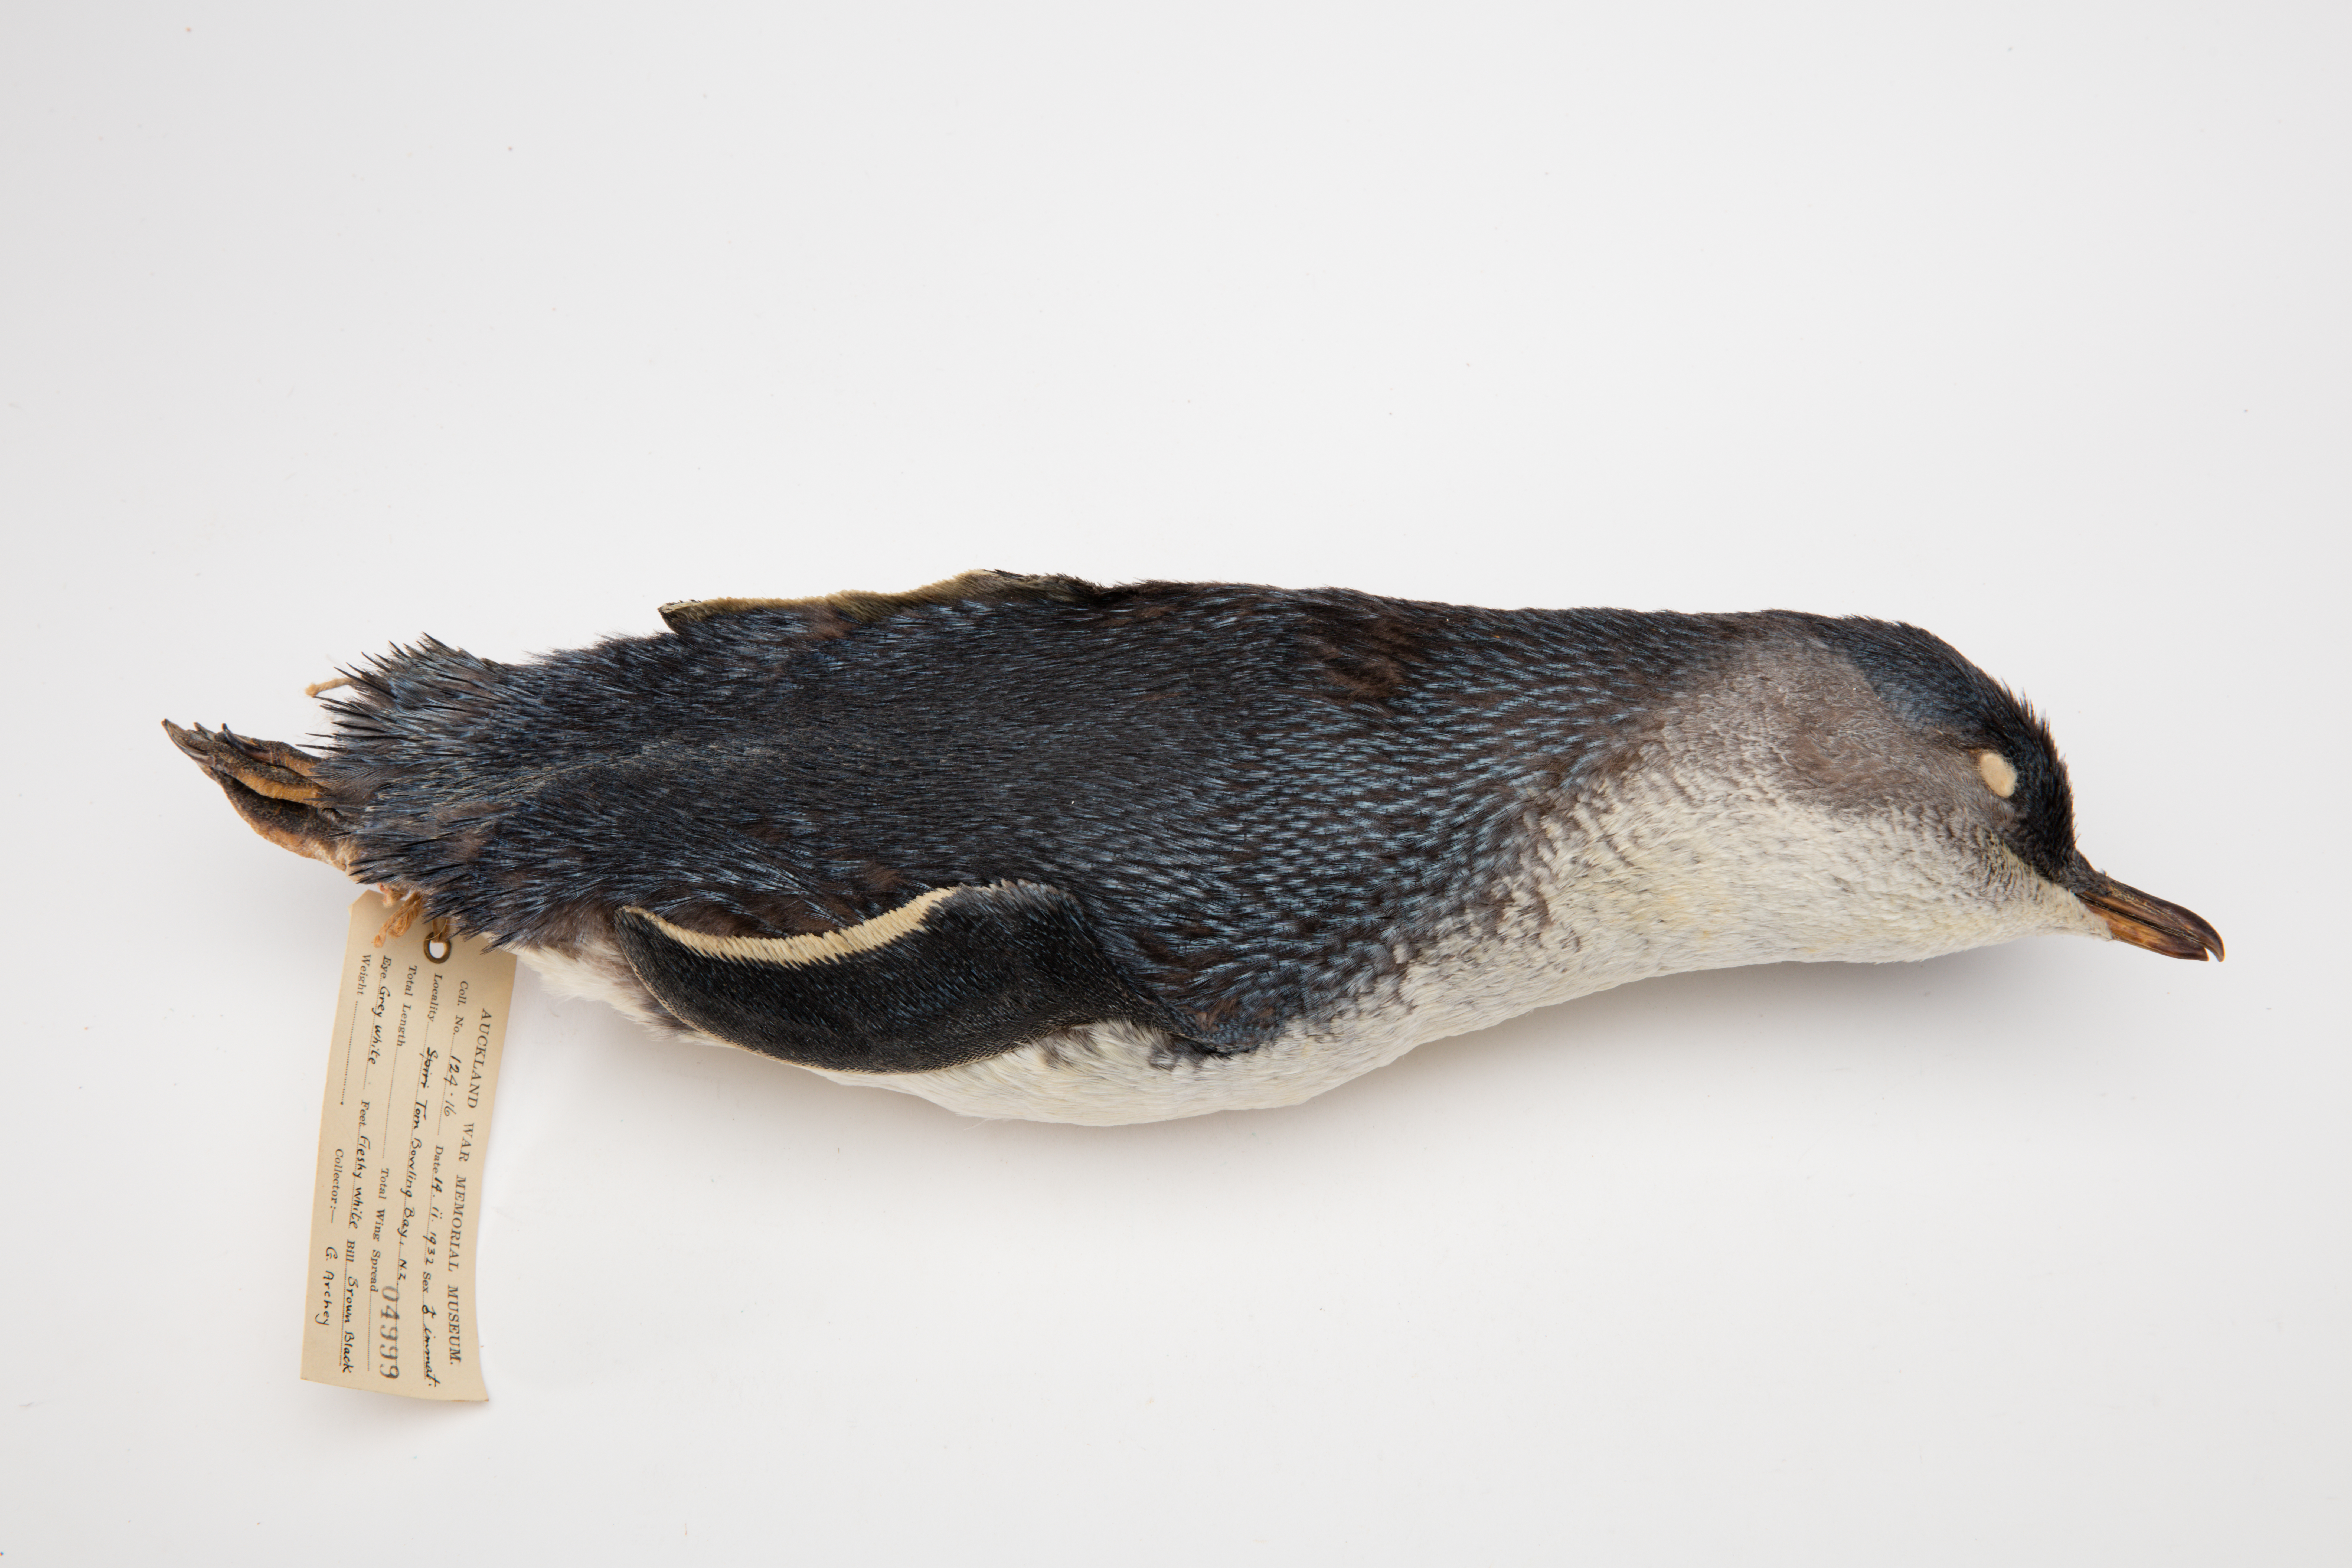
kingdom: Animalia
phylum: Chordata
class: Aves
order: Sphenisciformes
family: Spheniscidae
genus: Eudyptula
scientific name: Eudyptula minor
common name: Little penguin
